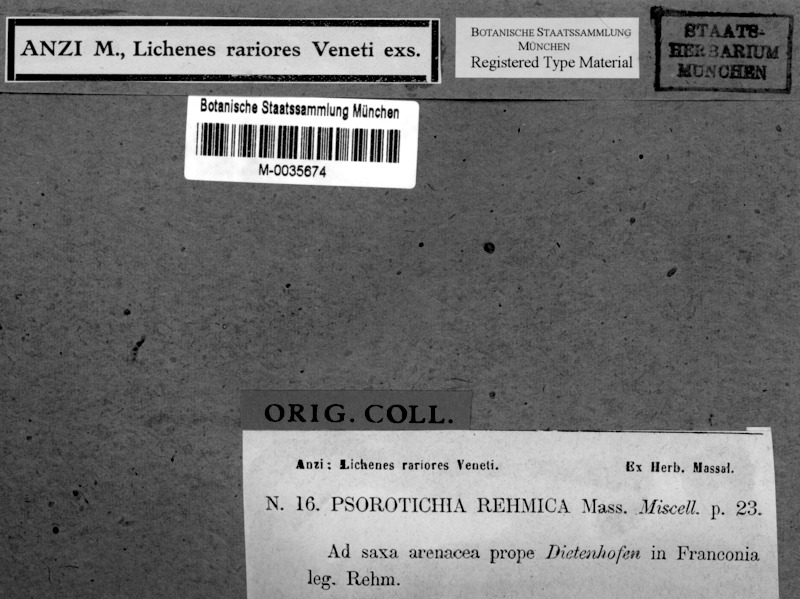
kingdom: Fungi
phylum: Ascomycota
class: Lichinomycetes
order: Lichinales
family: Lichinaceae
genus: Porocyphus
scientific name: Porocyphus rehmicus
